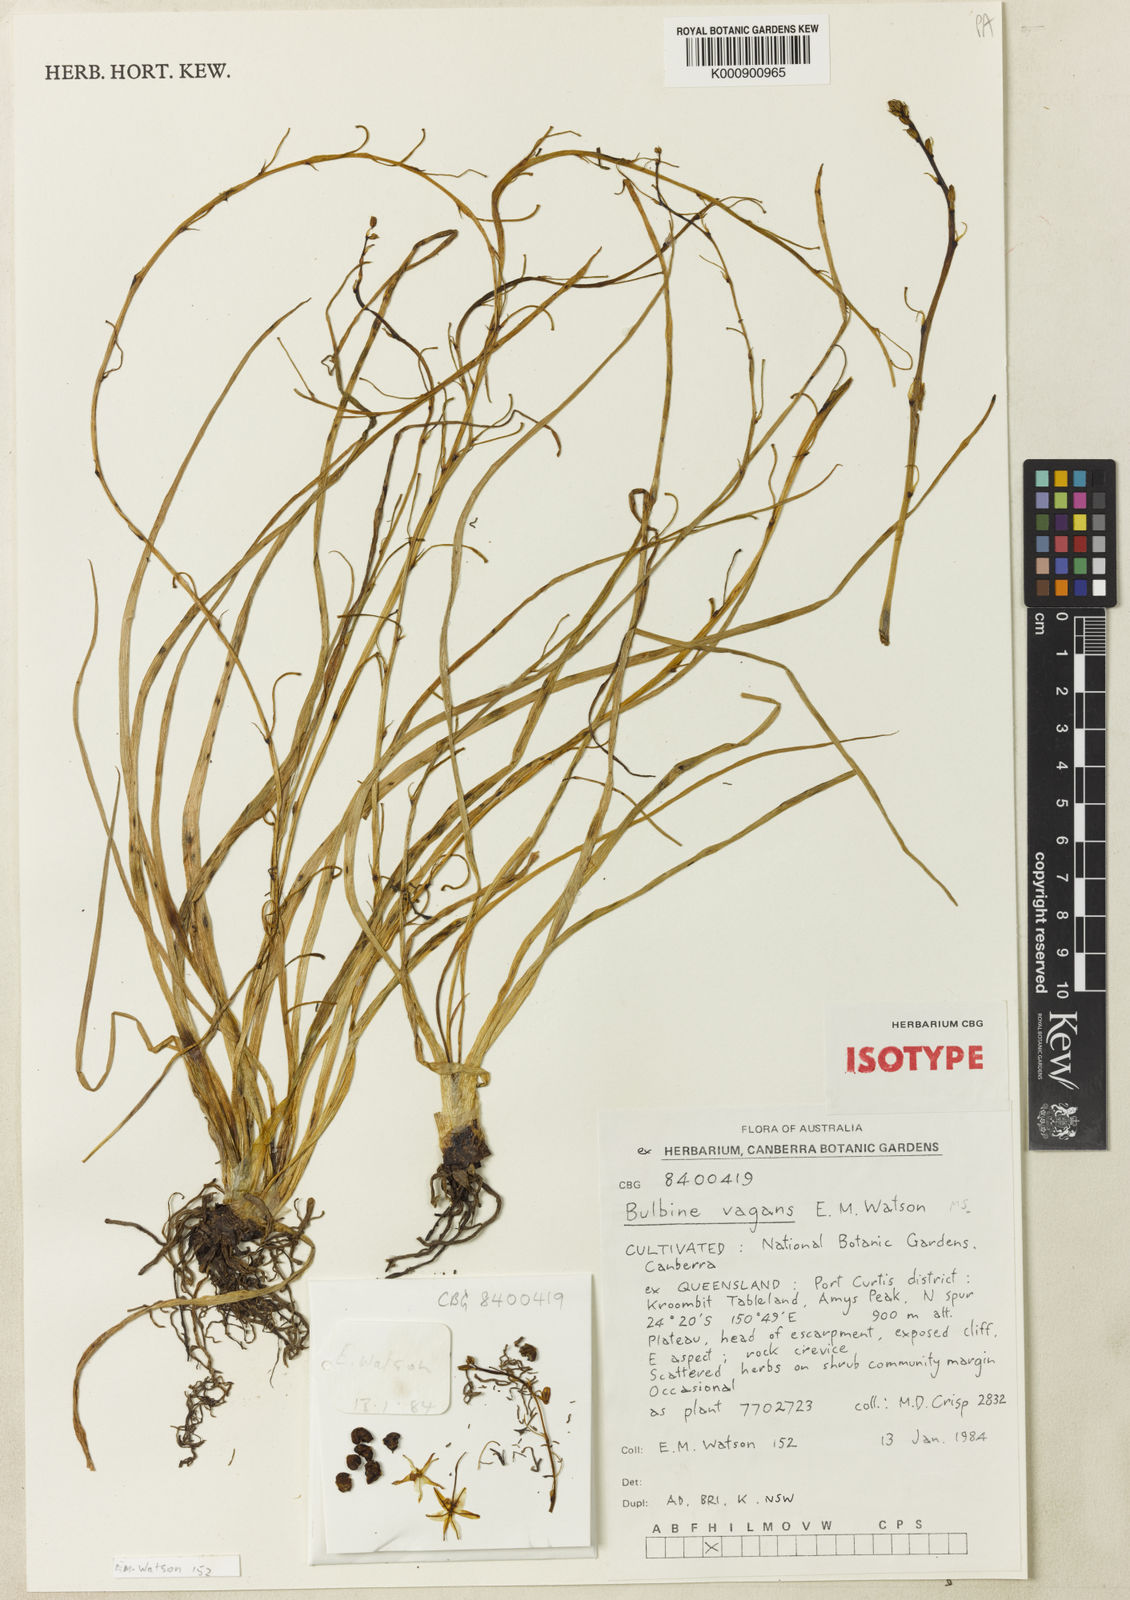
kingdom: Plantae
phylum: Tracheophyta
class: Liliopsida
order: Asparagales
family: Asphodelaceae
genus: Bulbine
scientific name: Bulbine vagans
